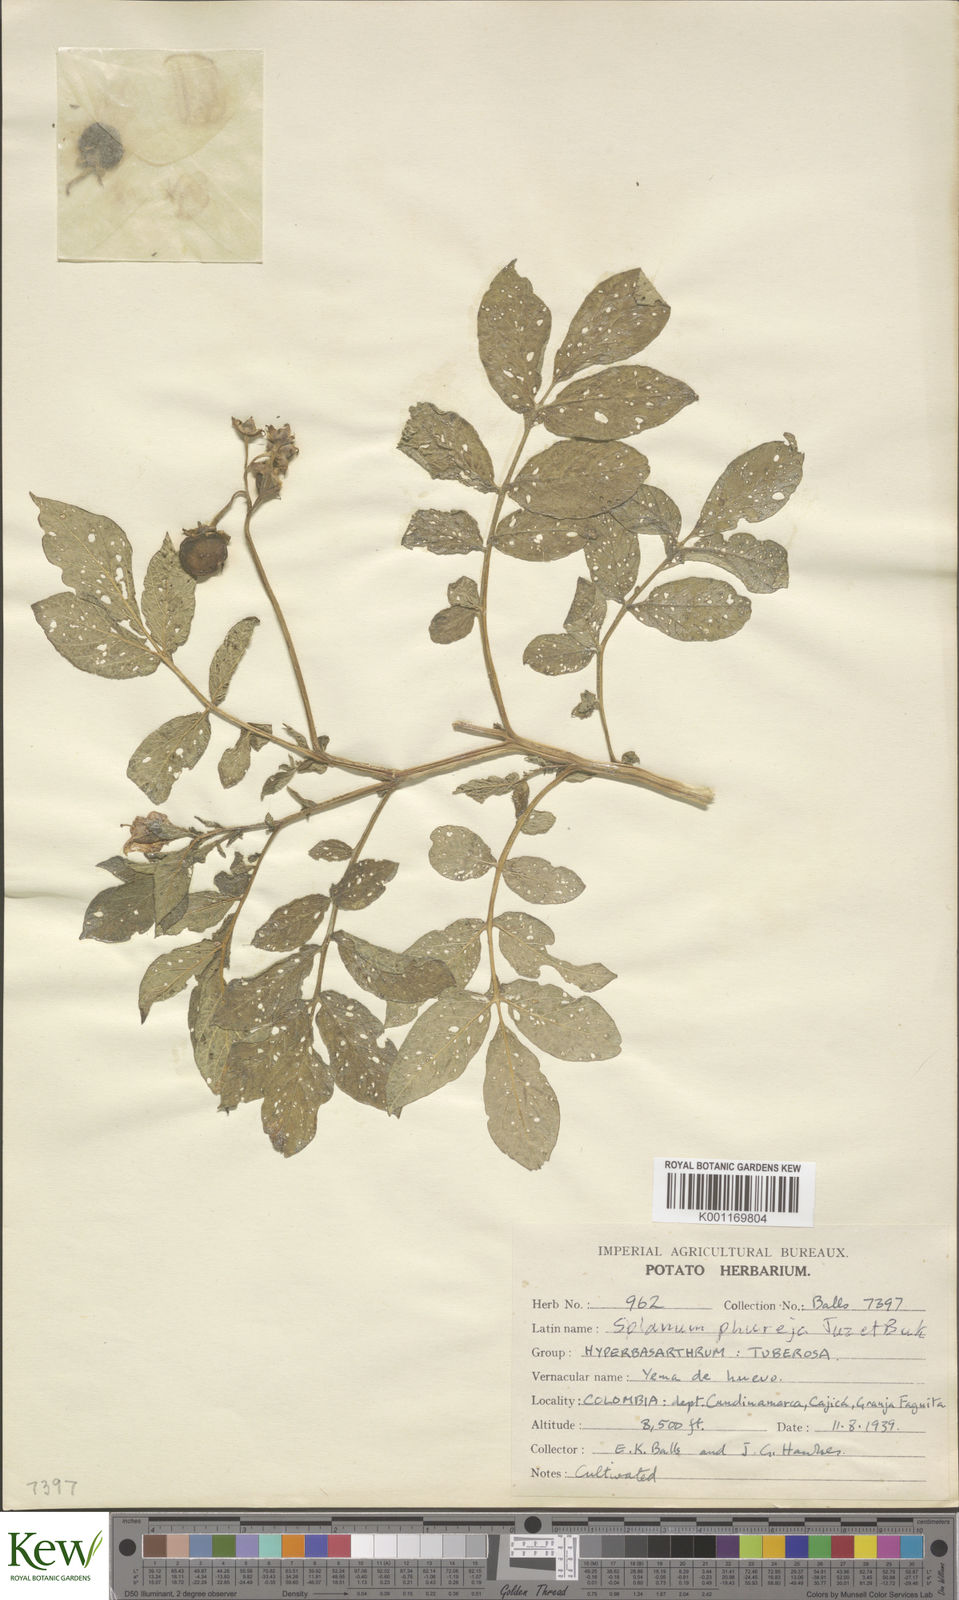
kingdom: Plantae
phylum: Tracheophyta
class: Magnoliopsida
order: Solanales
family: Solanaceae
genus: Solanum
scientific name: Solanum tuberosum
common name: Potato
